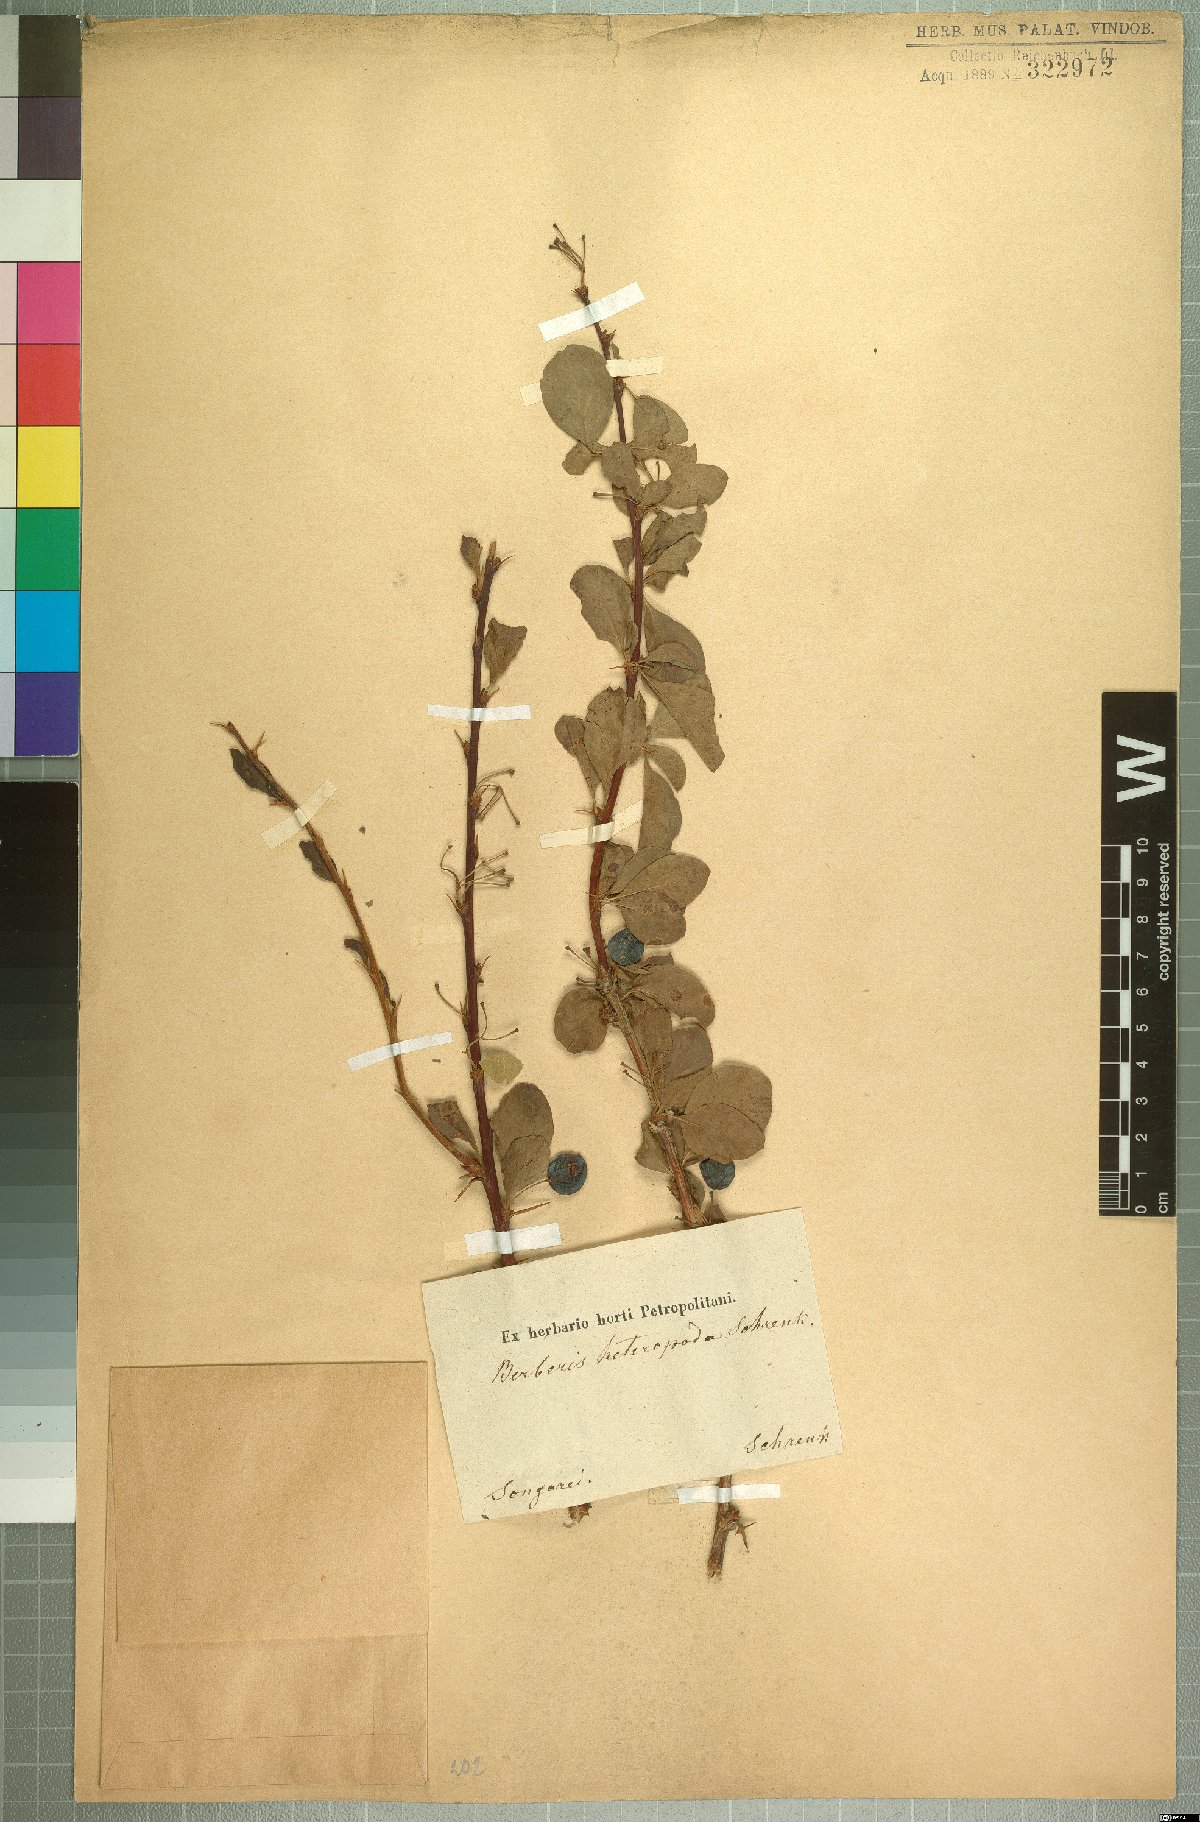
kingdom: Plantae
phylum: Tracheophyta
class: Magnoliopsida
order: Ranunculales
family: Berberidaceae
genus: Berberis
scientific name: Berberis heteropoda
